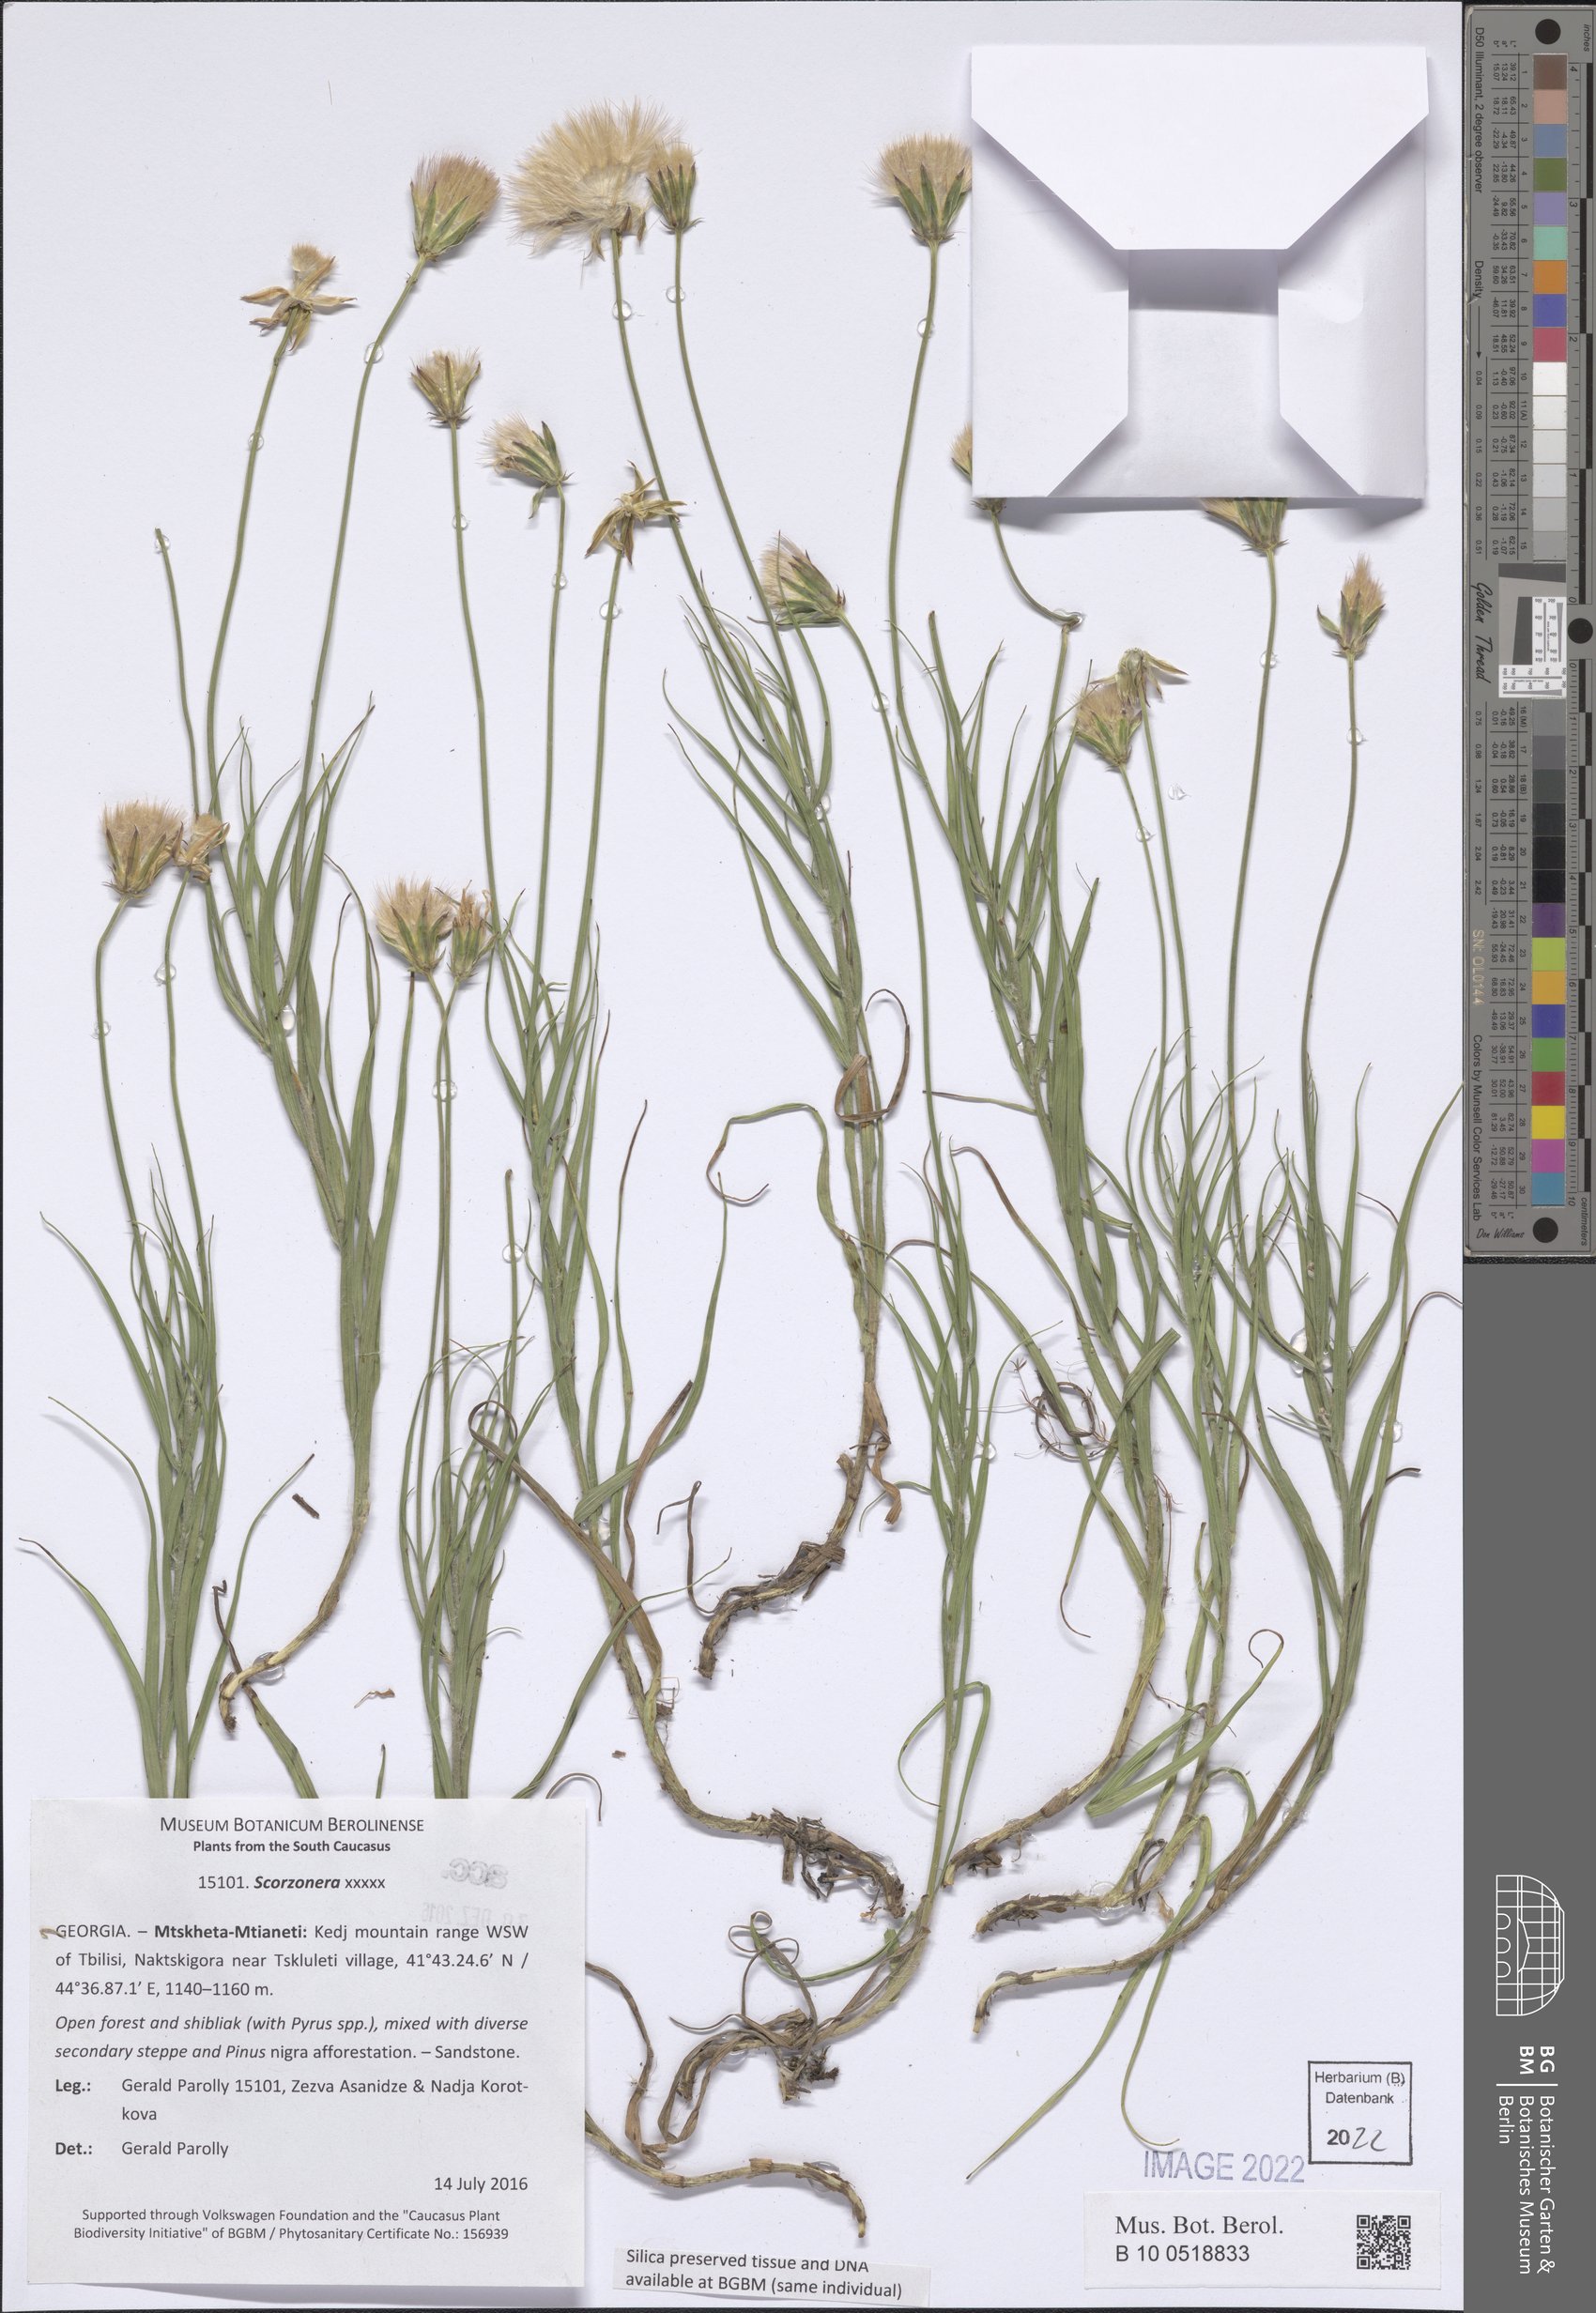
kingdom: Plantae
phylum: Tracheophyta
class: Magnoliopsida
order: Asterales
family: Asteraceae
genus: Scorzonera
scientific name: Scorzonera
